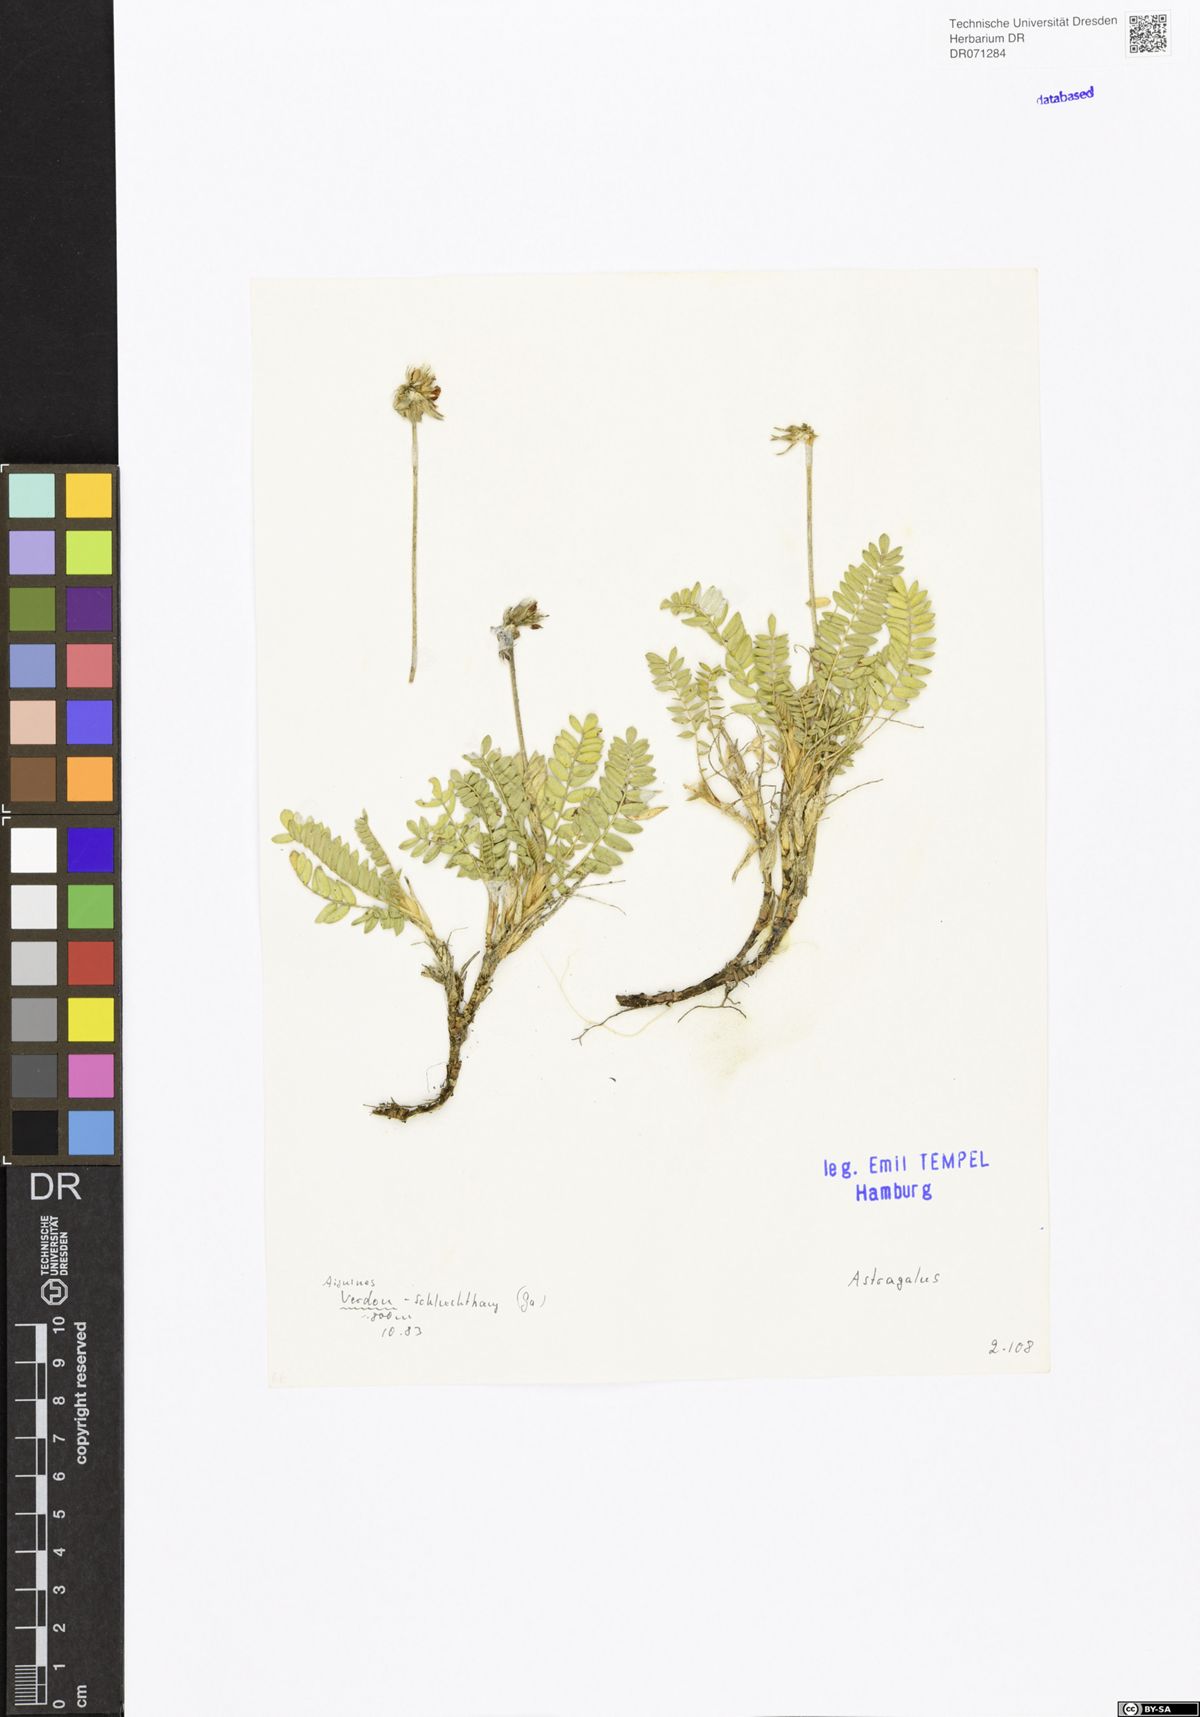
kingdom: Plantae
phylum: Tracheophyta
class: Magnoliopsida
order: Fabales
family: Fabaceae
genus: Astragalus
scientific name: Astragalus
